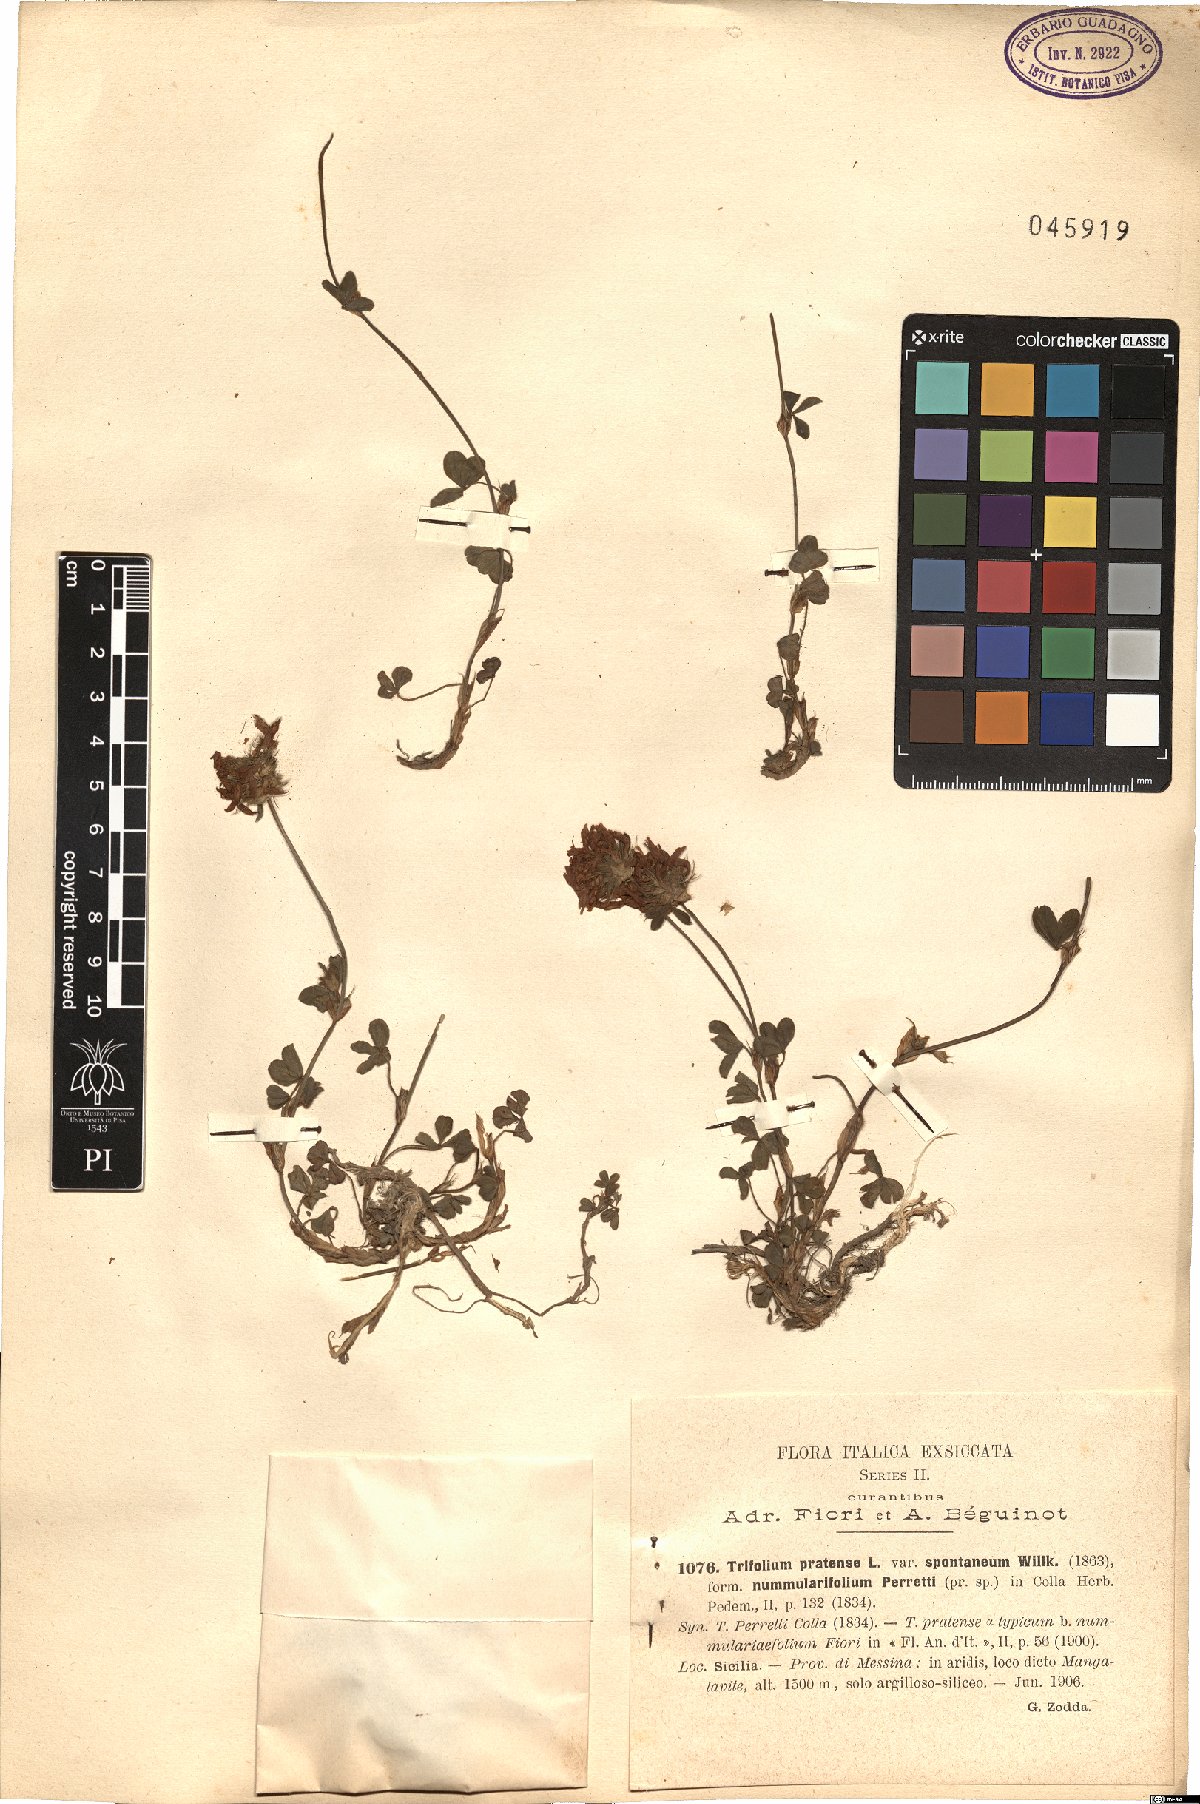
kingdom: Plantae
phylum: Tracheophyta
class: Magnoliopsida
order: Fabales
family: Fabaceae
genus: Trifolium
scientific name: Trifolium pratense
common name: Red clover
